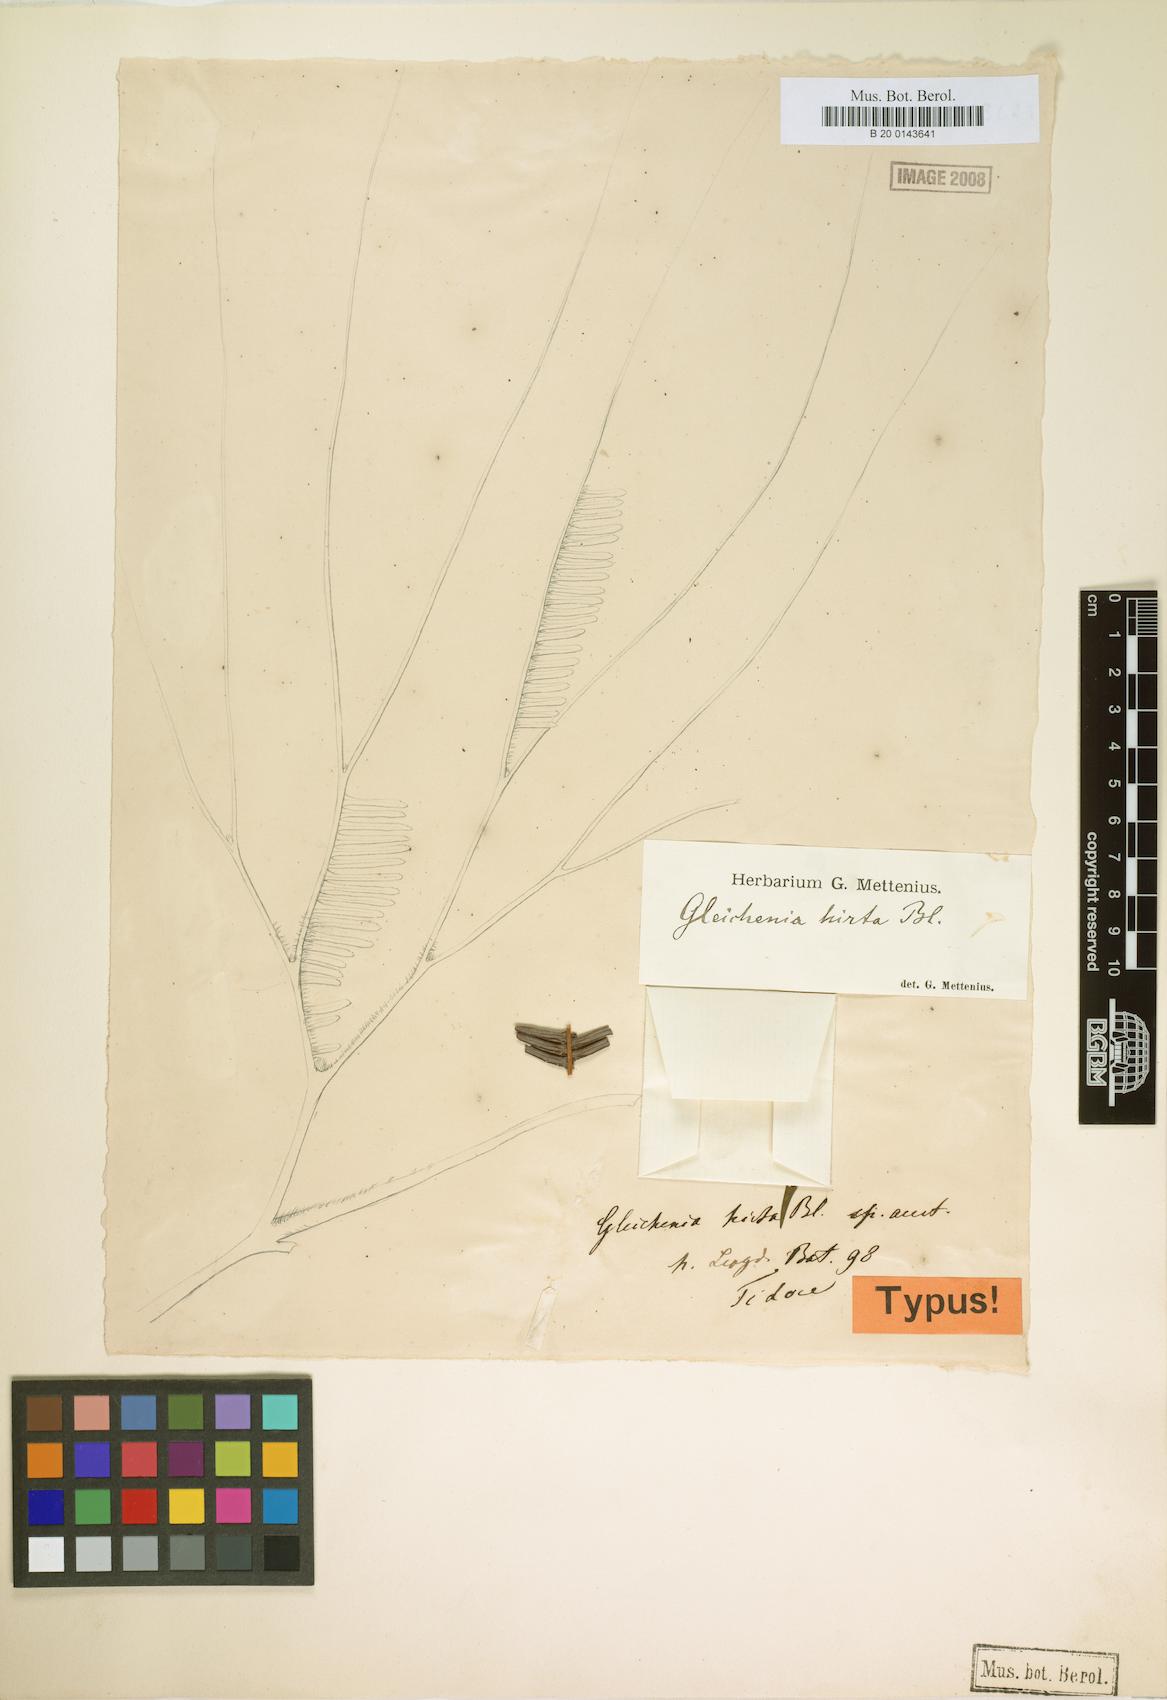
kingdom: Plantae
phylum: Tracheophyta
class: Polypodiopsida
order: Gleicheniales
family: Gleicheniaceae
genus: Sticherus
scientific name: Sticherus hirtus
